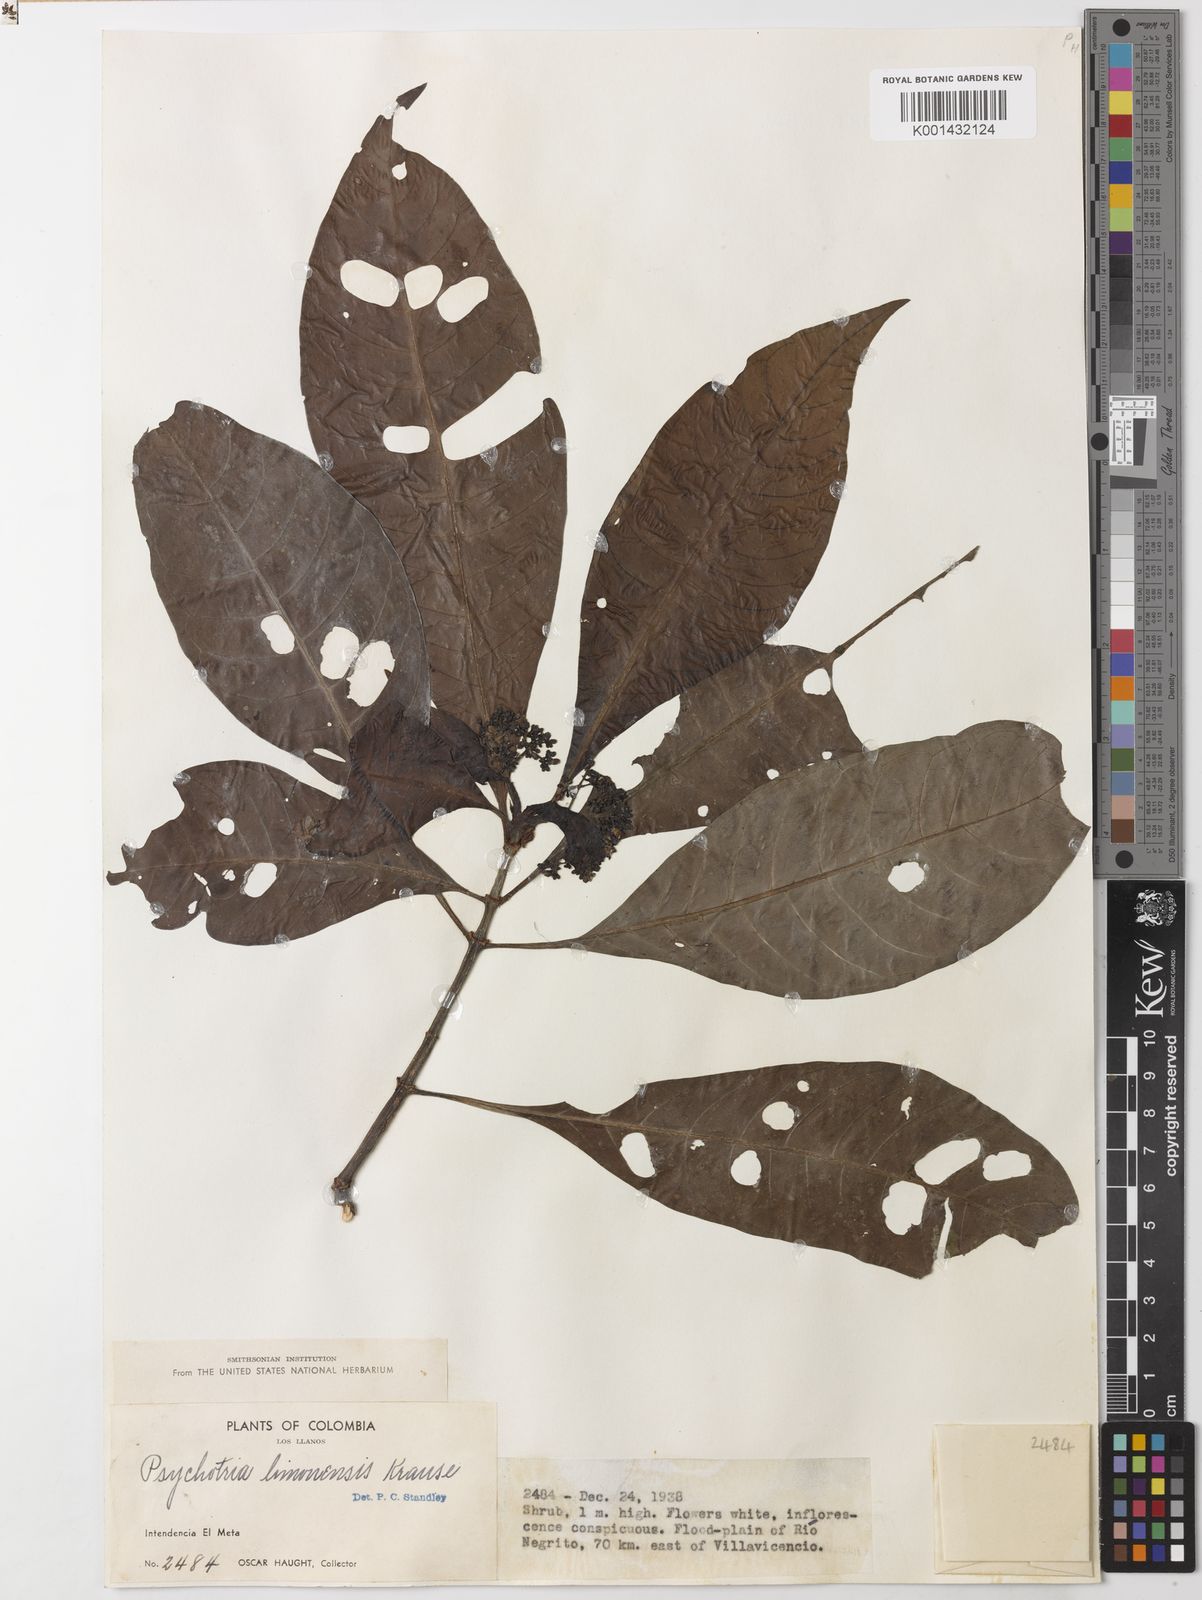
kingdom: Plantae
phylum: Tracheophyta
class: Magnoliopsida
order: Gentianales
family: Rubiaceae
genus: Psychotria
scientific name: Psychotria limonensis
